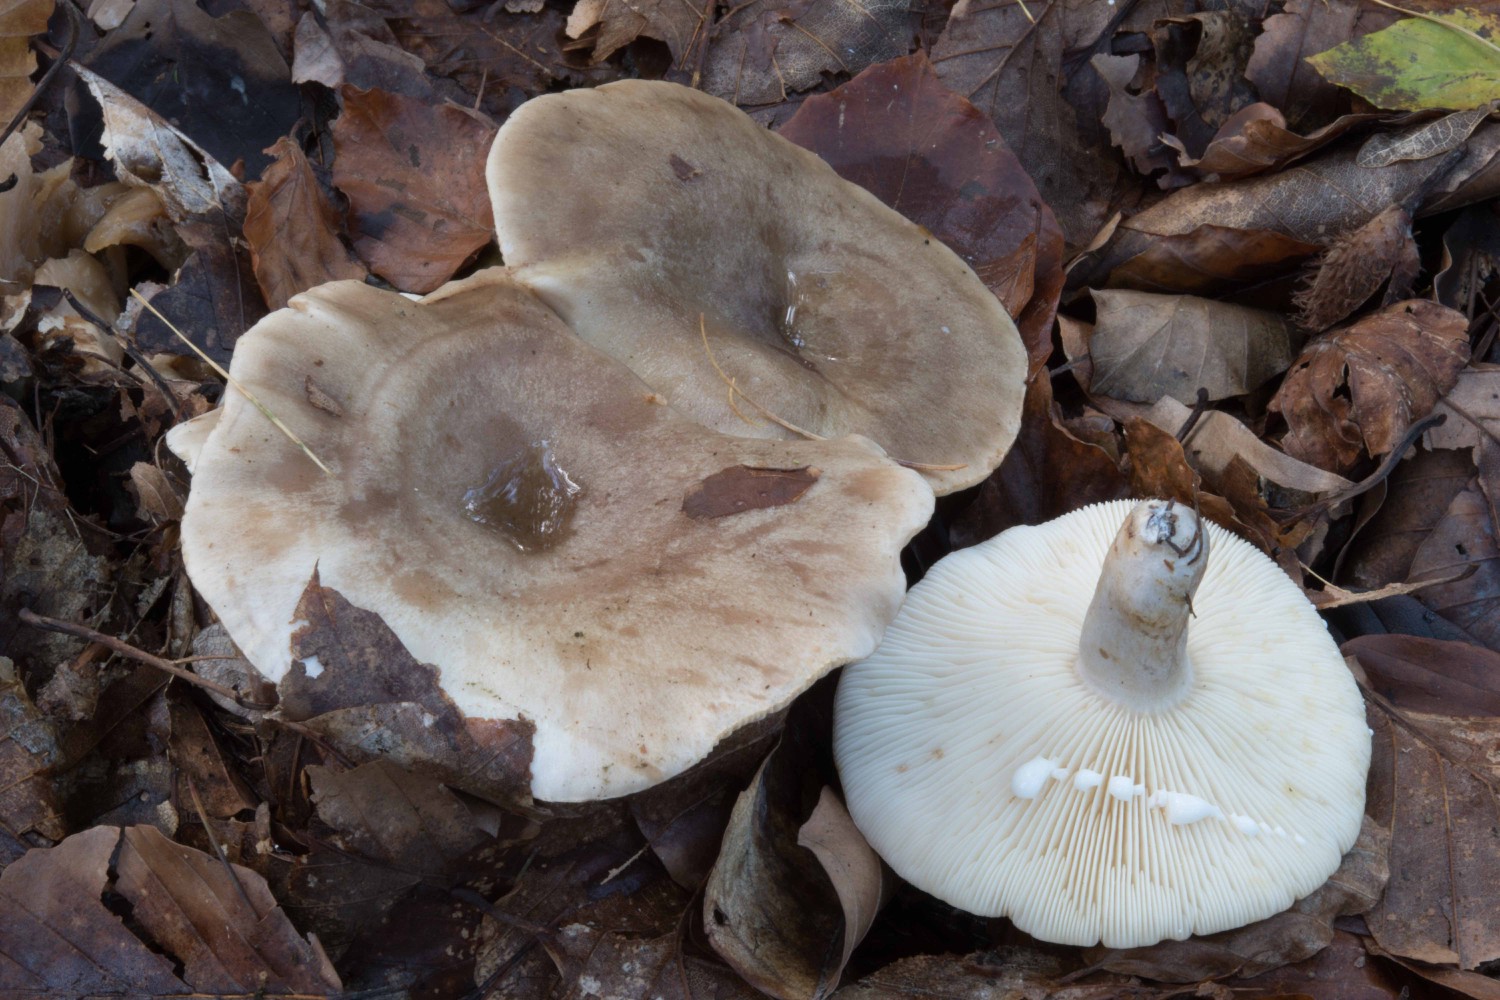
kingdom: Fungi
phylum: Basidiomycota
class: Agaricomycetes
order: Russulales
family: Russulaceae
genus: Lactarius
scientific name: Lactarius fluens
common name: lysrandet mælkehat
